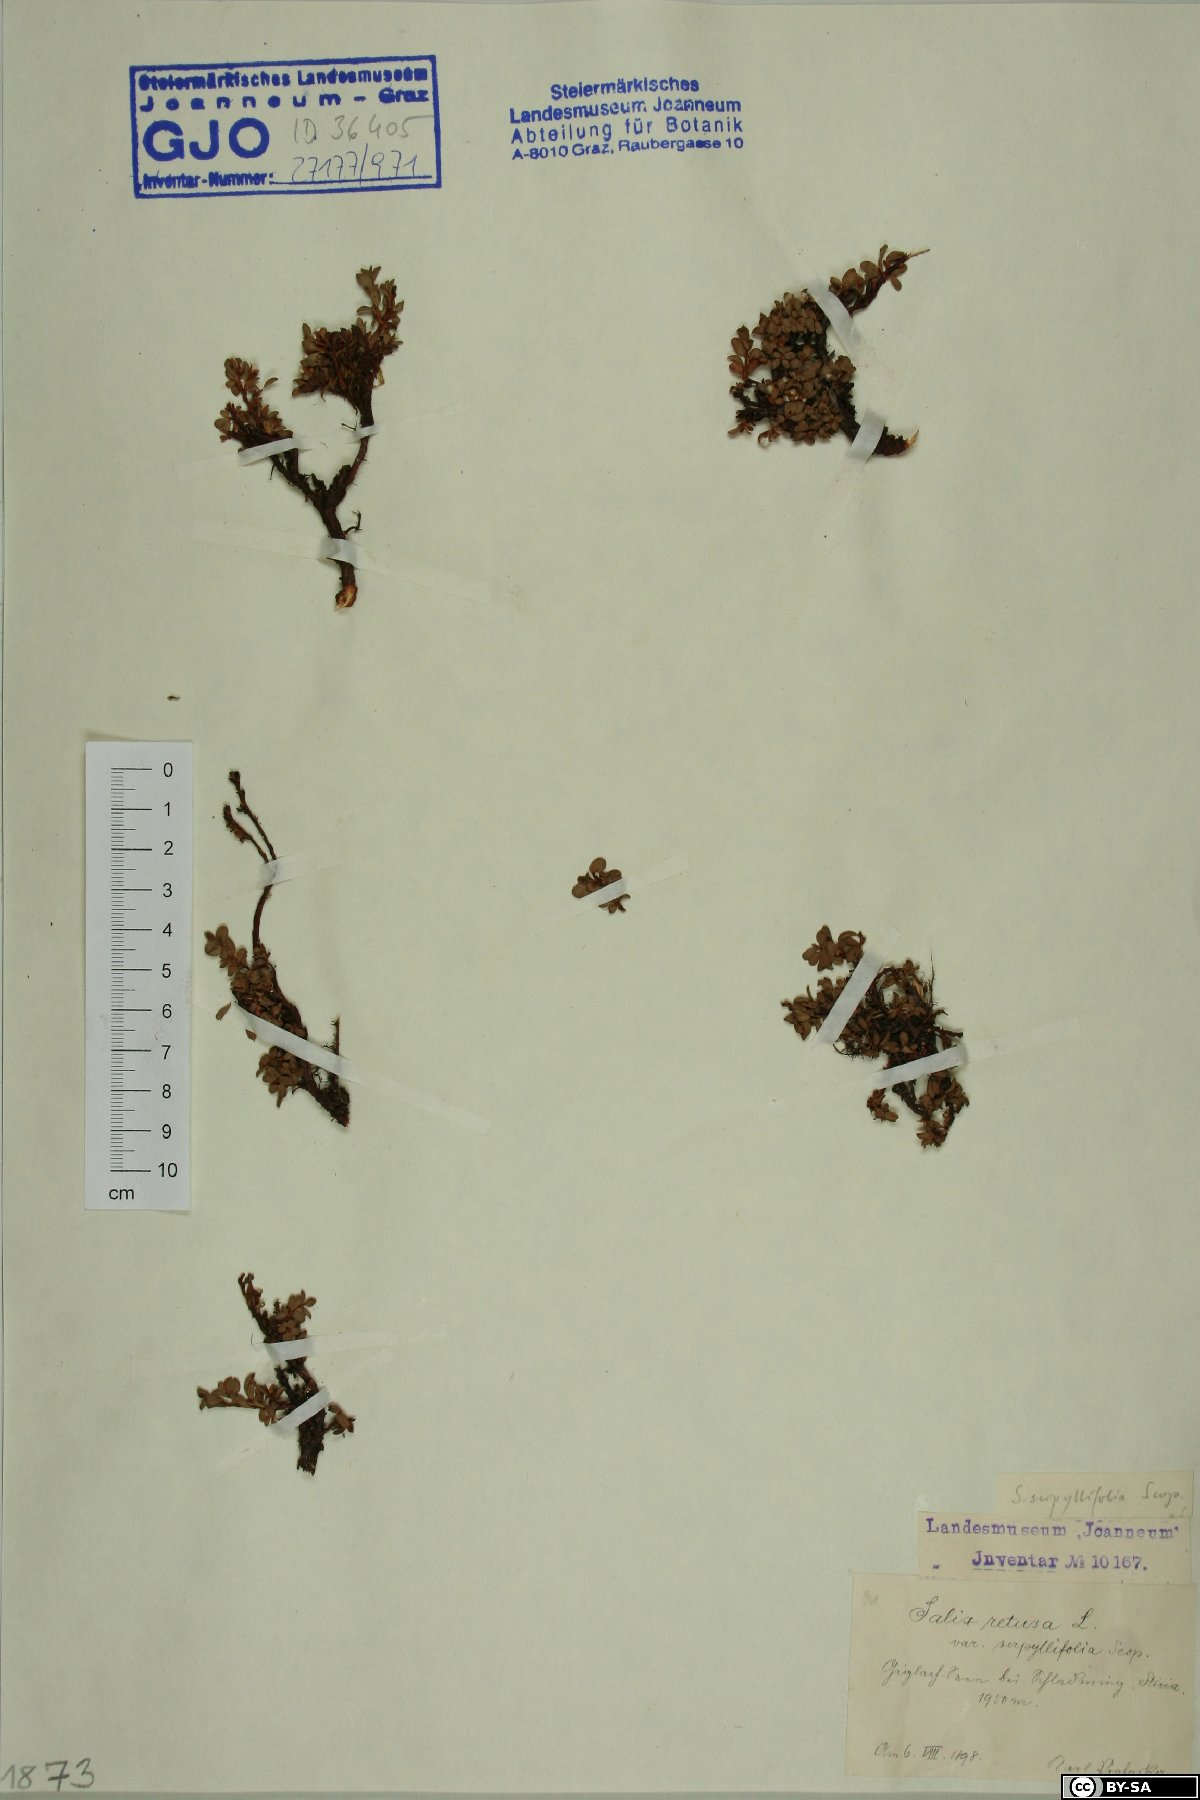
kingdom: Plantae
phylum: Tracheophyta
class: Magnoliopsida
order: Malpighiales
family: Salicaceae
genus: Salix
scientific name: Salix serpillifolia
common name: Thyme-leaf willow
